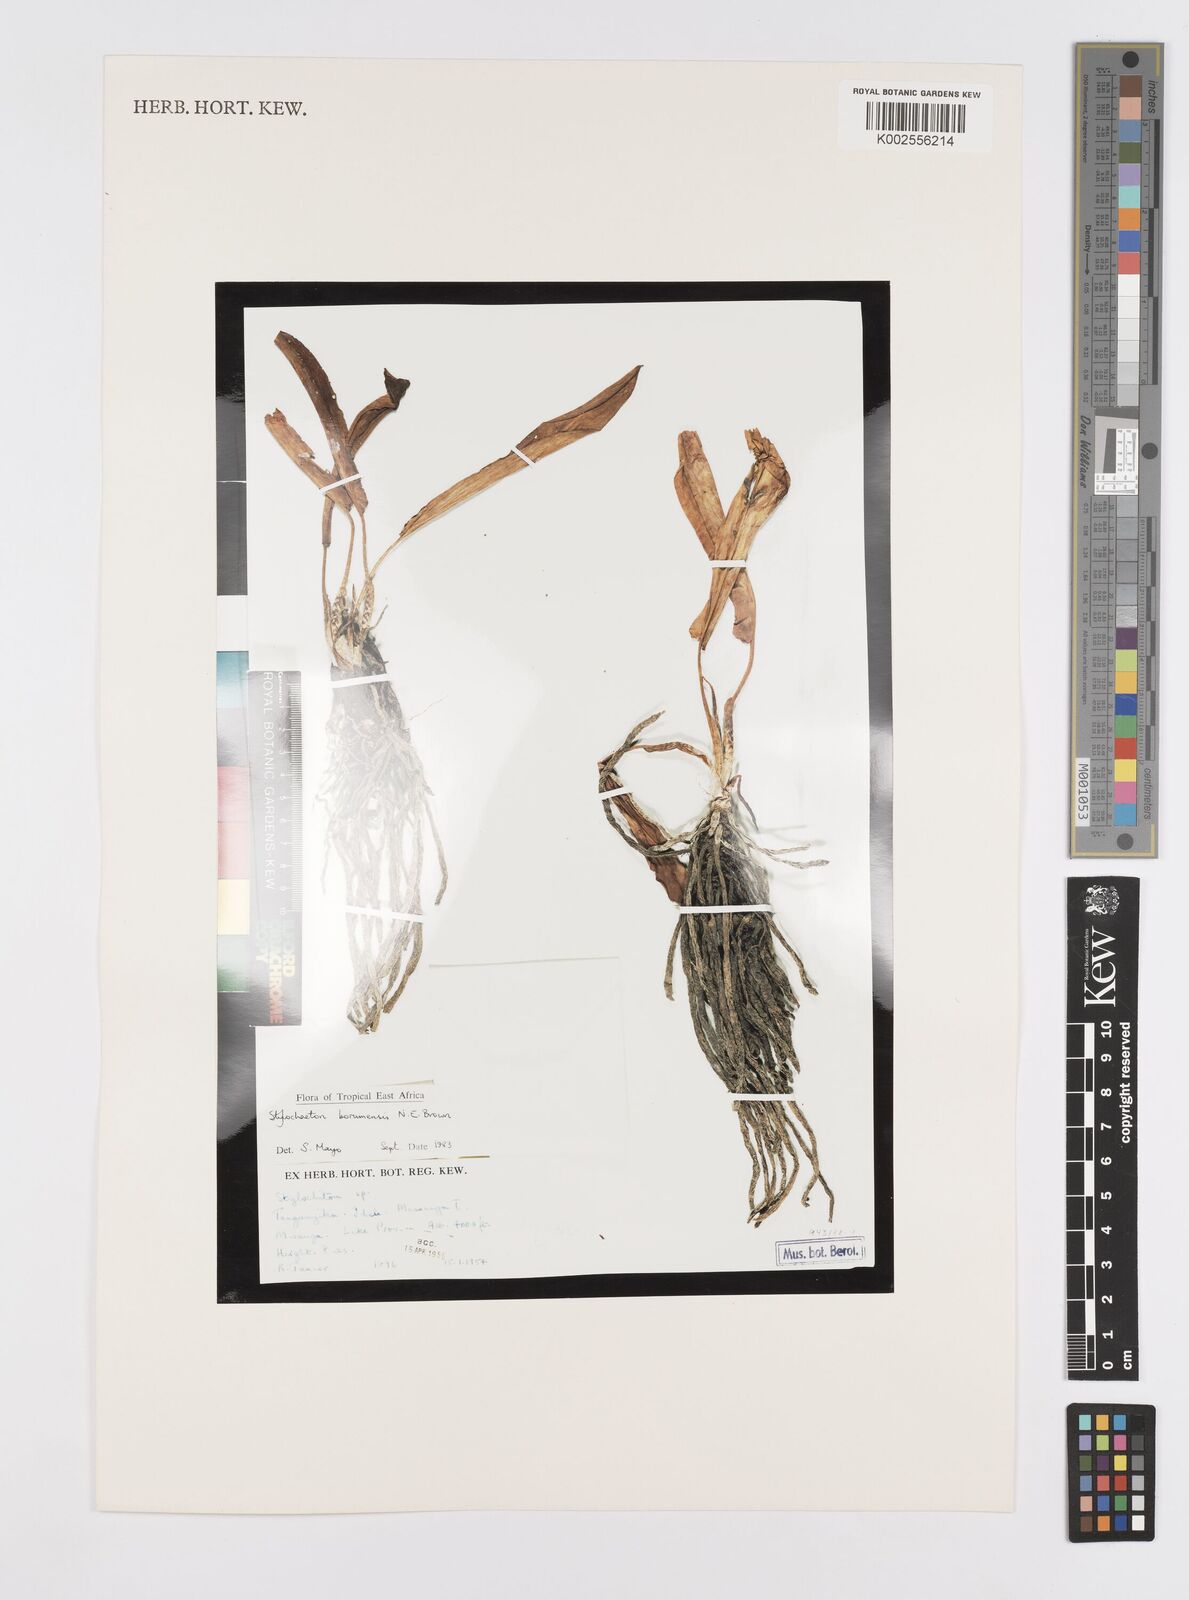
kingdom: Plantae
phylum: Tracheophyta
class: Liliopsida
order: Alismatales
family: Araceae
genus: Stylochaeton
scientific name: Stylochaeton borumense
